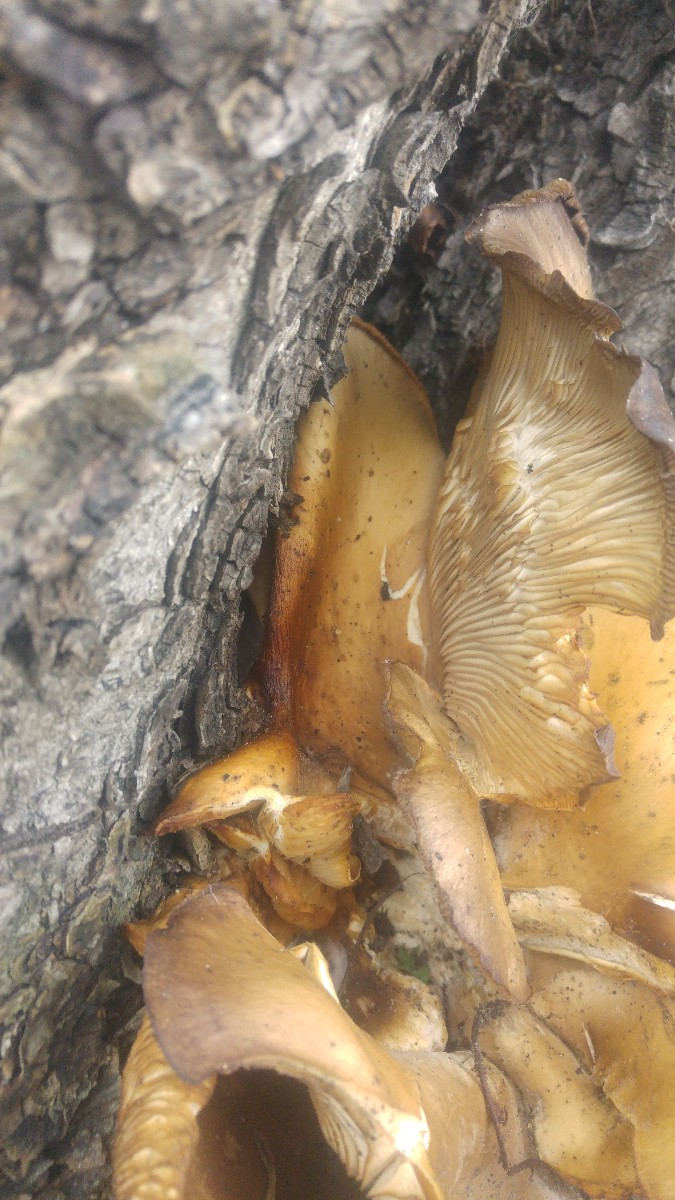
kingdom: Fungi
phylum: Basidiomycota
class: Agaricomycetes
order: Agaricales
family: Pleurotaceae
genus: Pleurotus
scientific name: Pleurotus ostreatus
